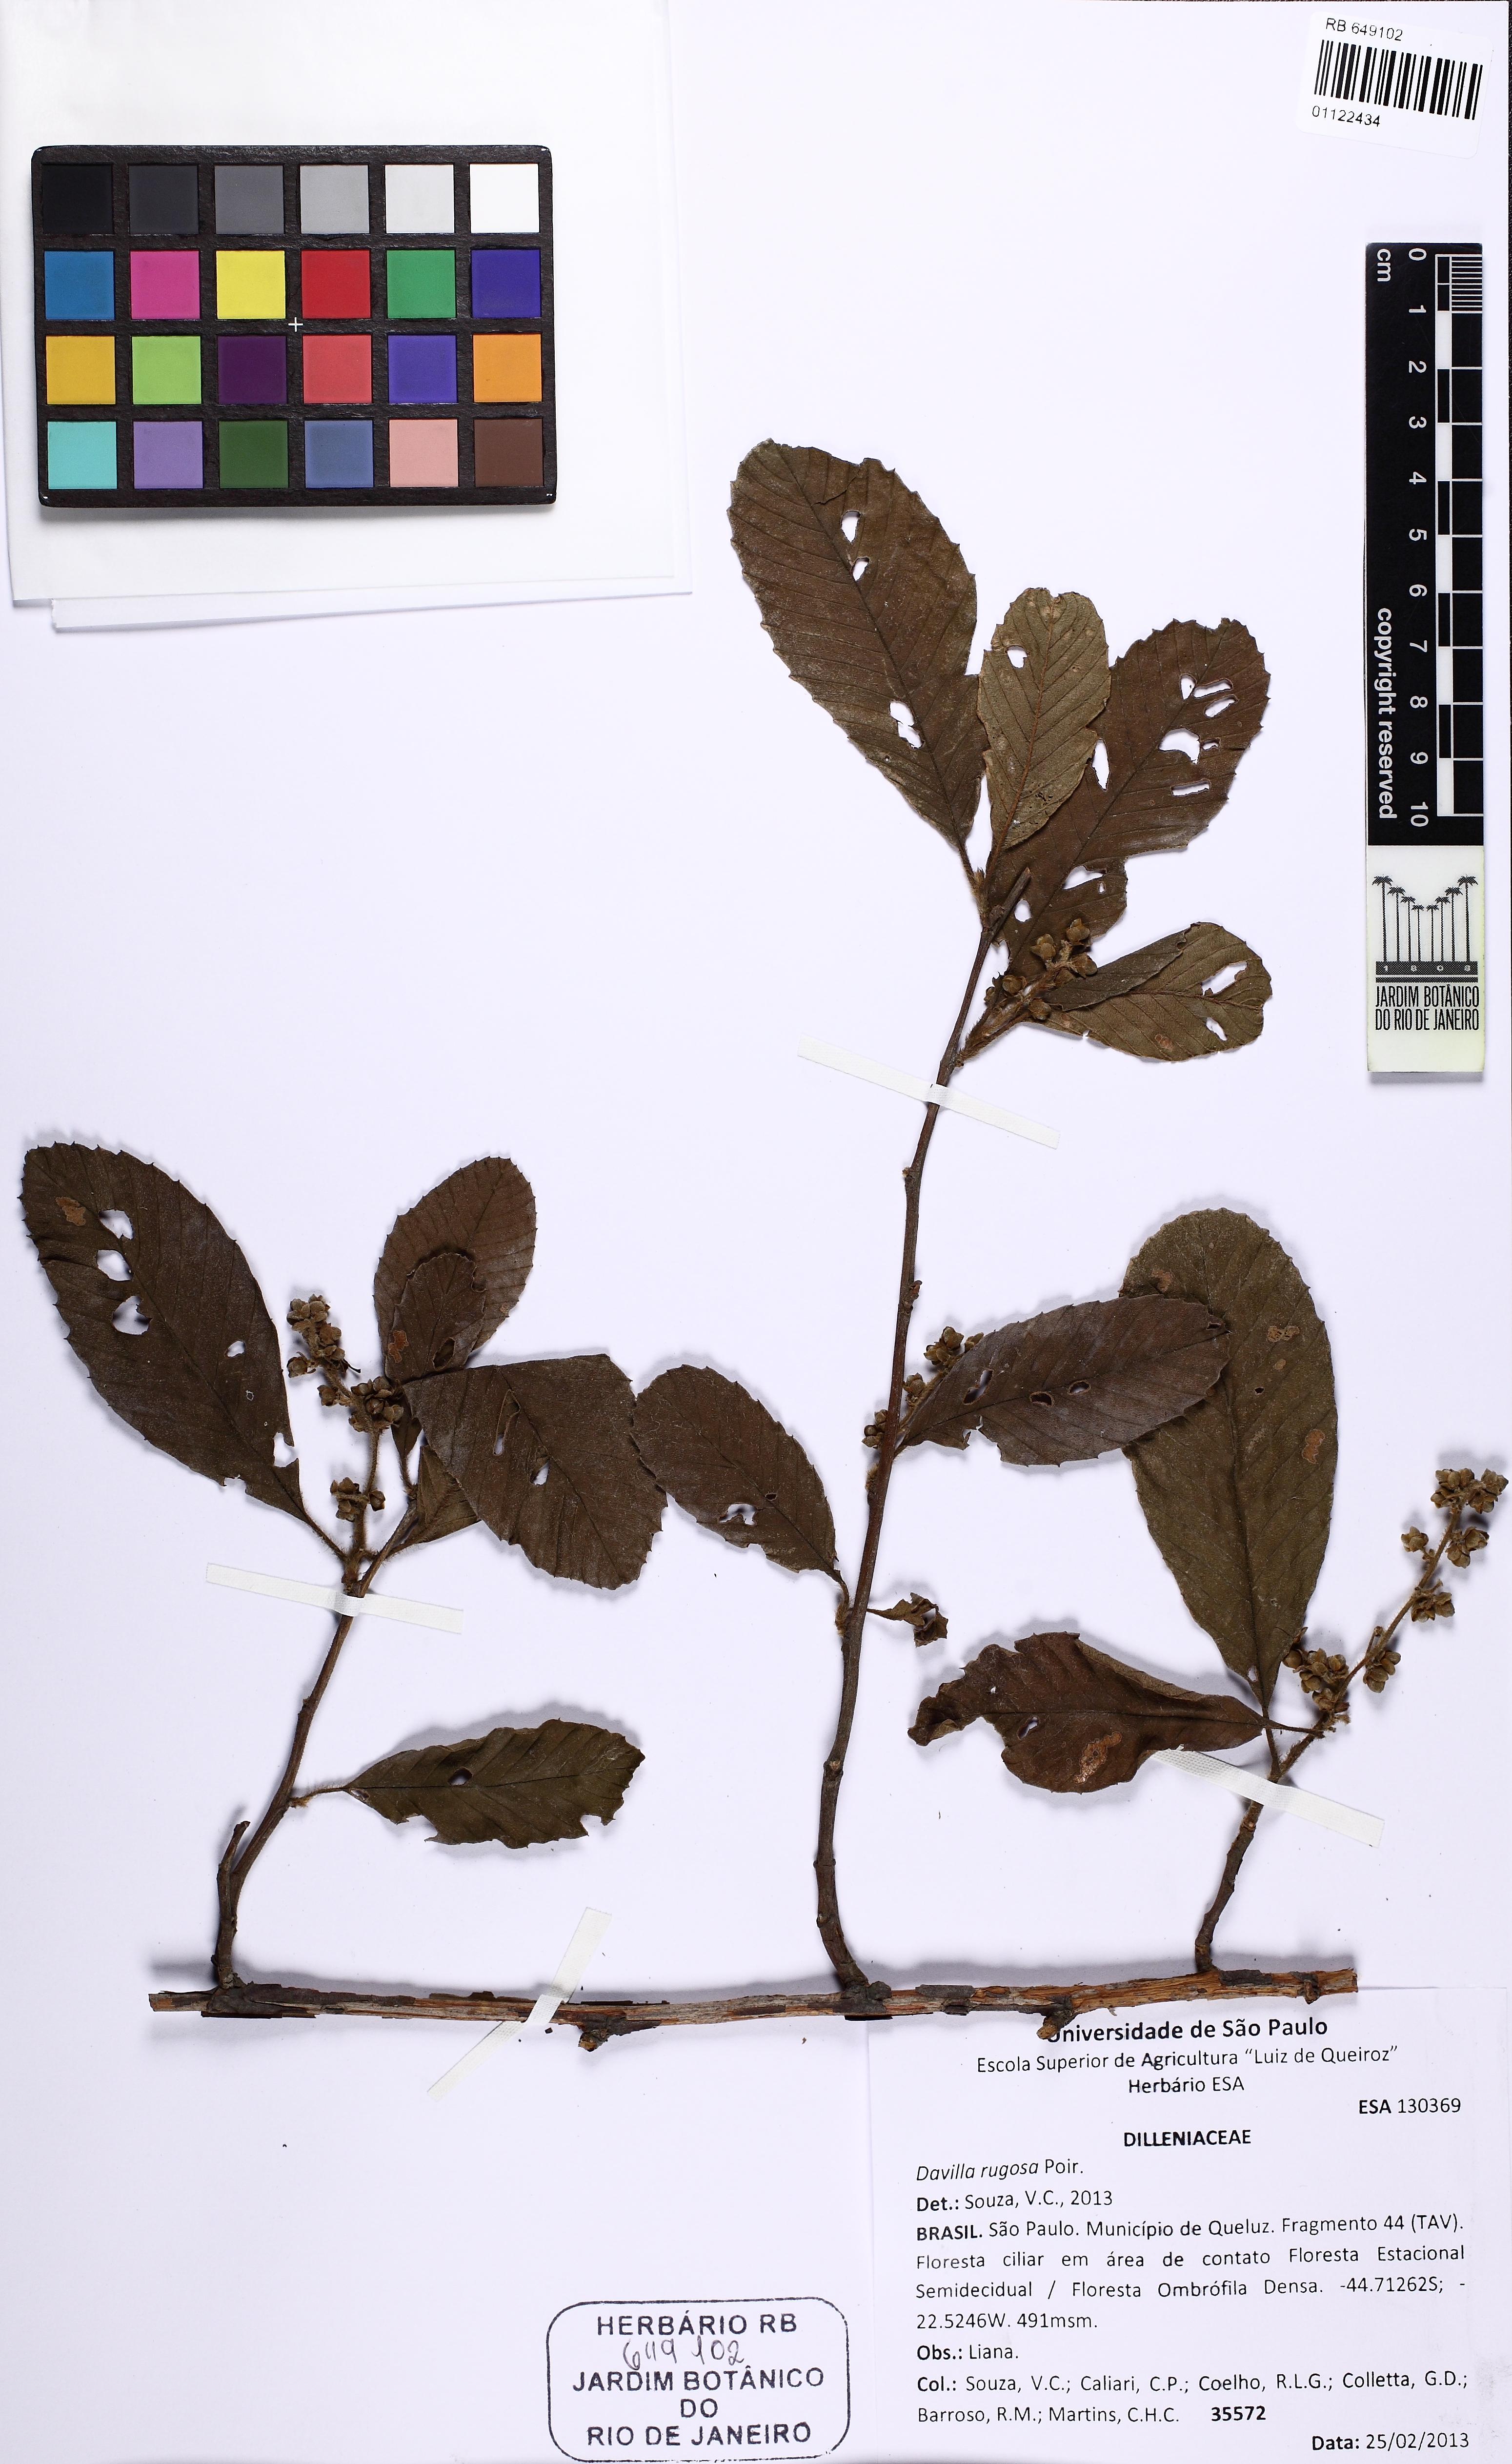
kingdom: Plantae
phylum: Tracheophyta
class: Magnoliopsida
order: Dilleniales
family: Dilleniaceae
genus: Tetracera
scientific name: Tetracera empedoclea
